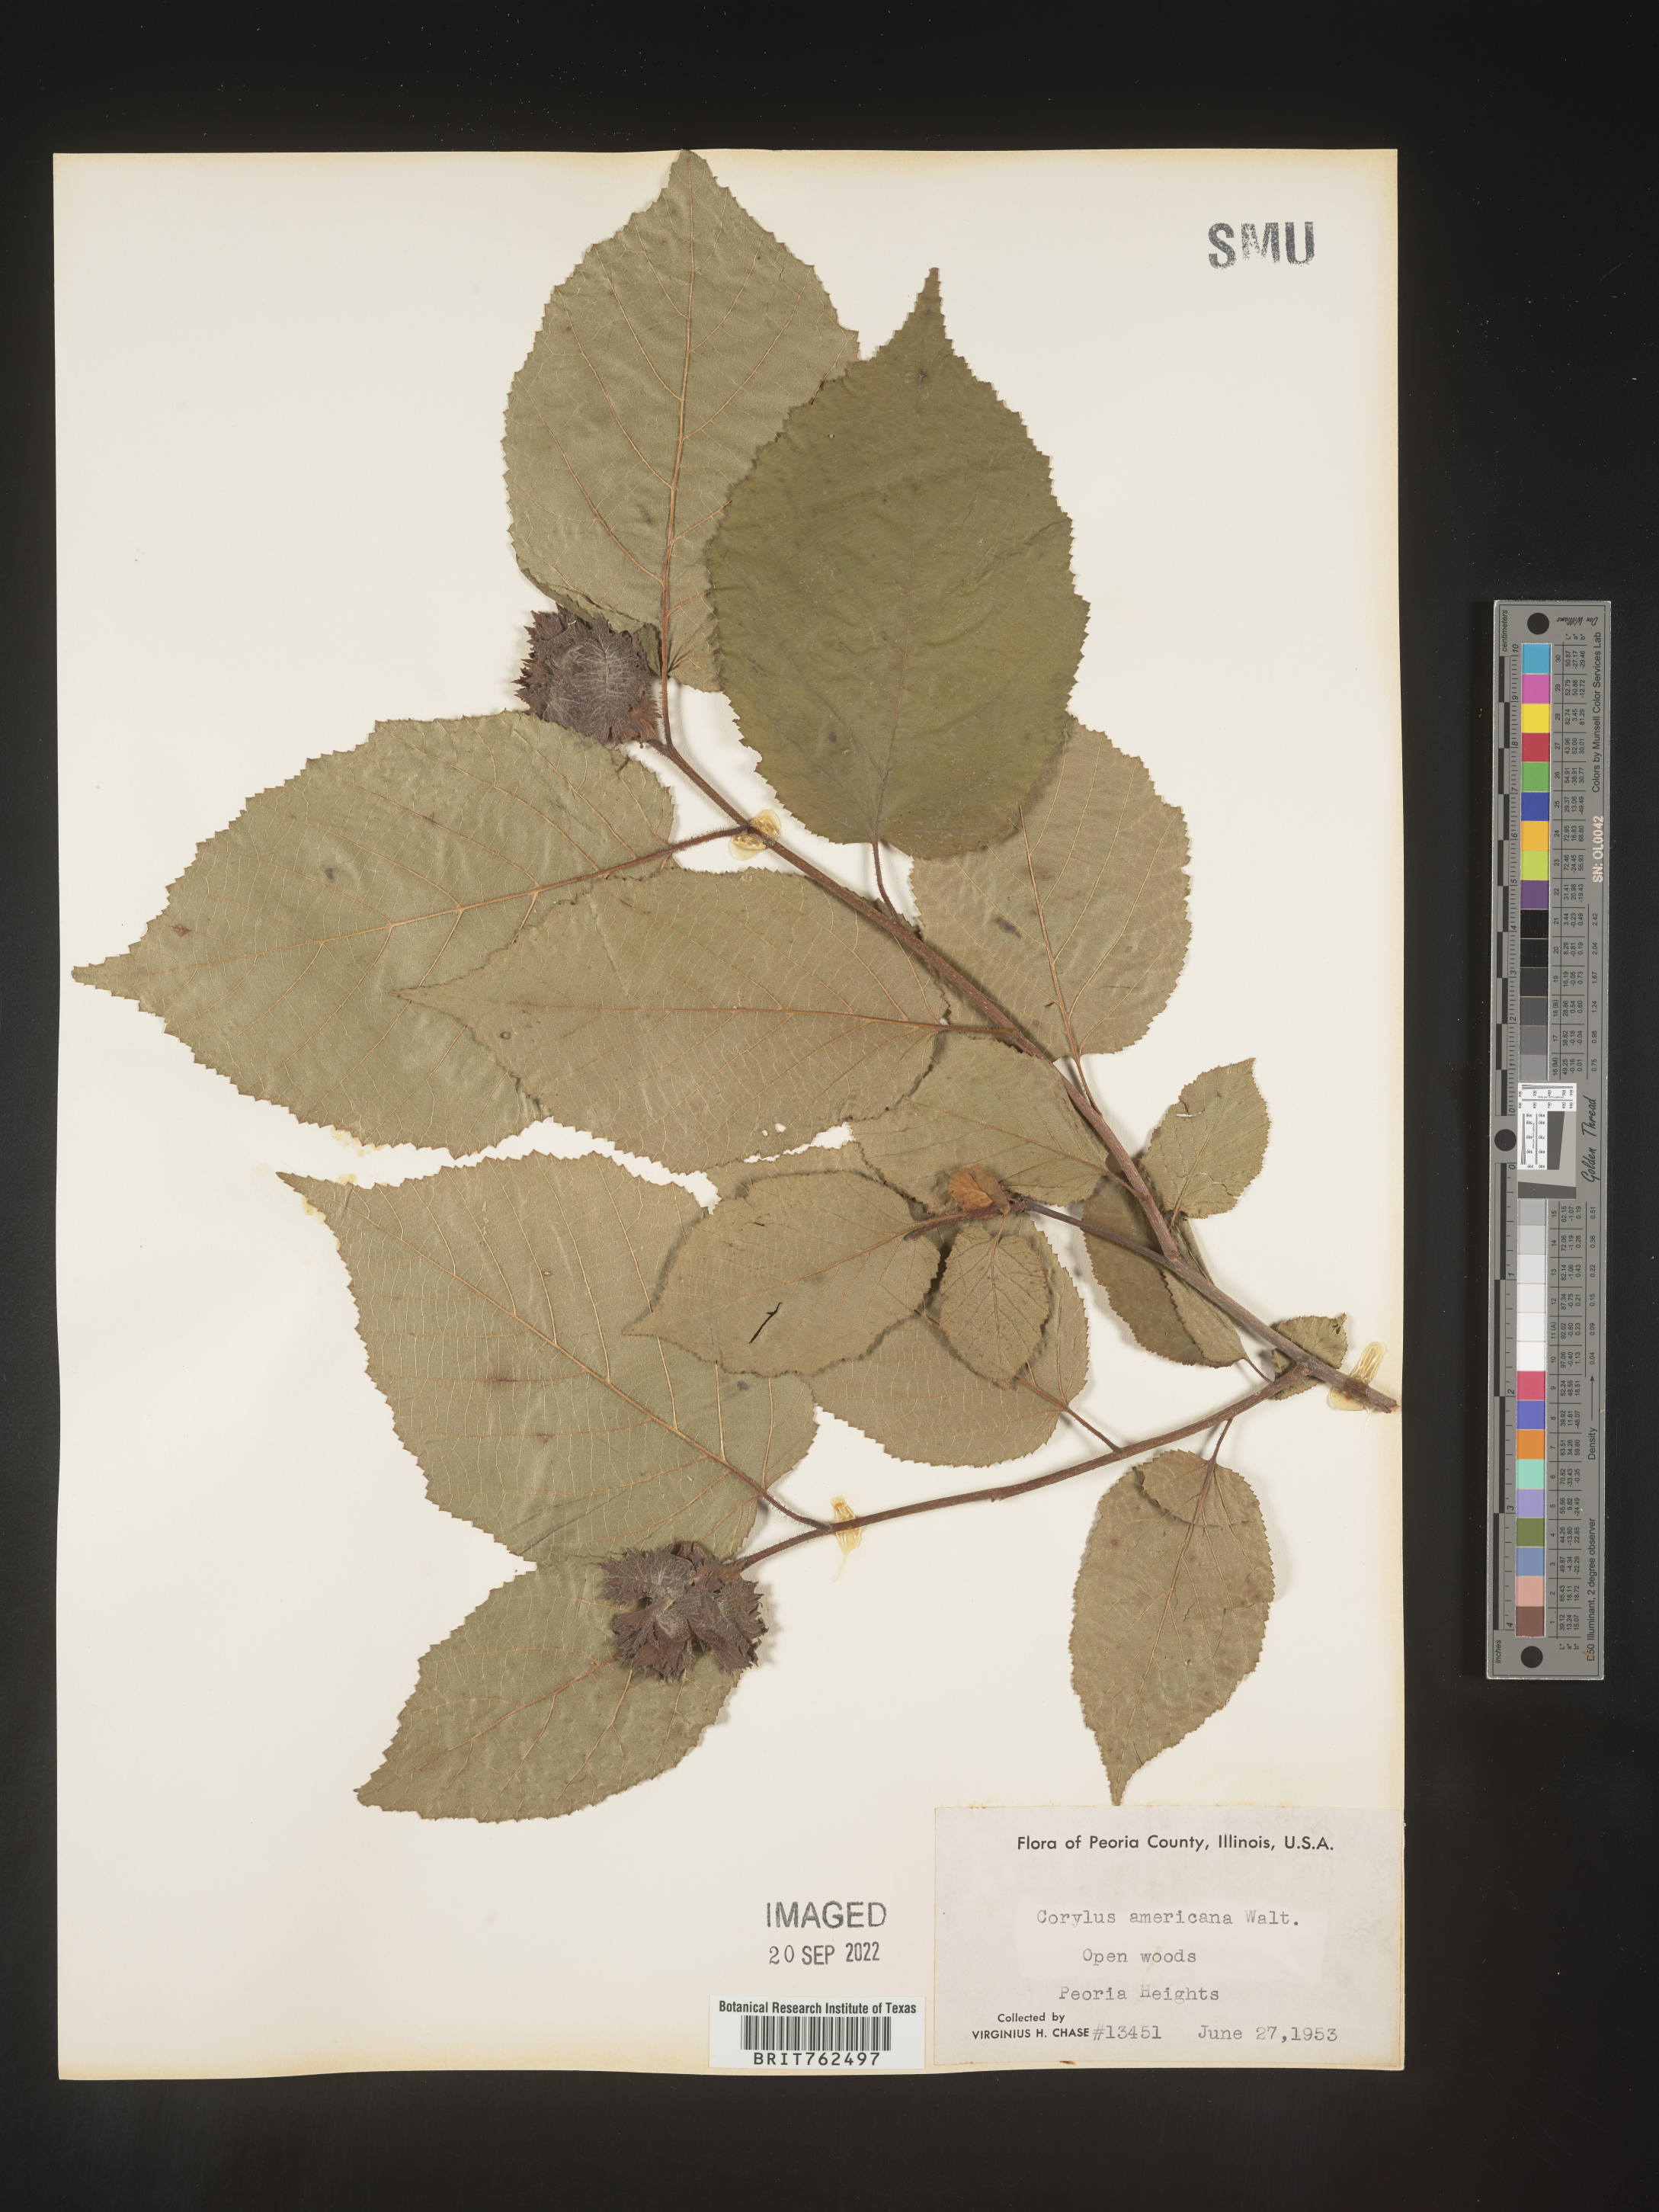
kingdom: Plantae
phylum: Tracheophyta
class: Magnoliopsida
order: Fagales
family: Betulaceae
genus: Corylus
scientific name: Corylus americana
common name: American hazel
